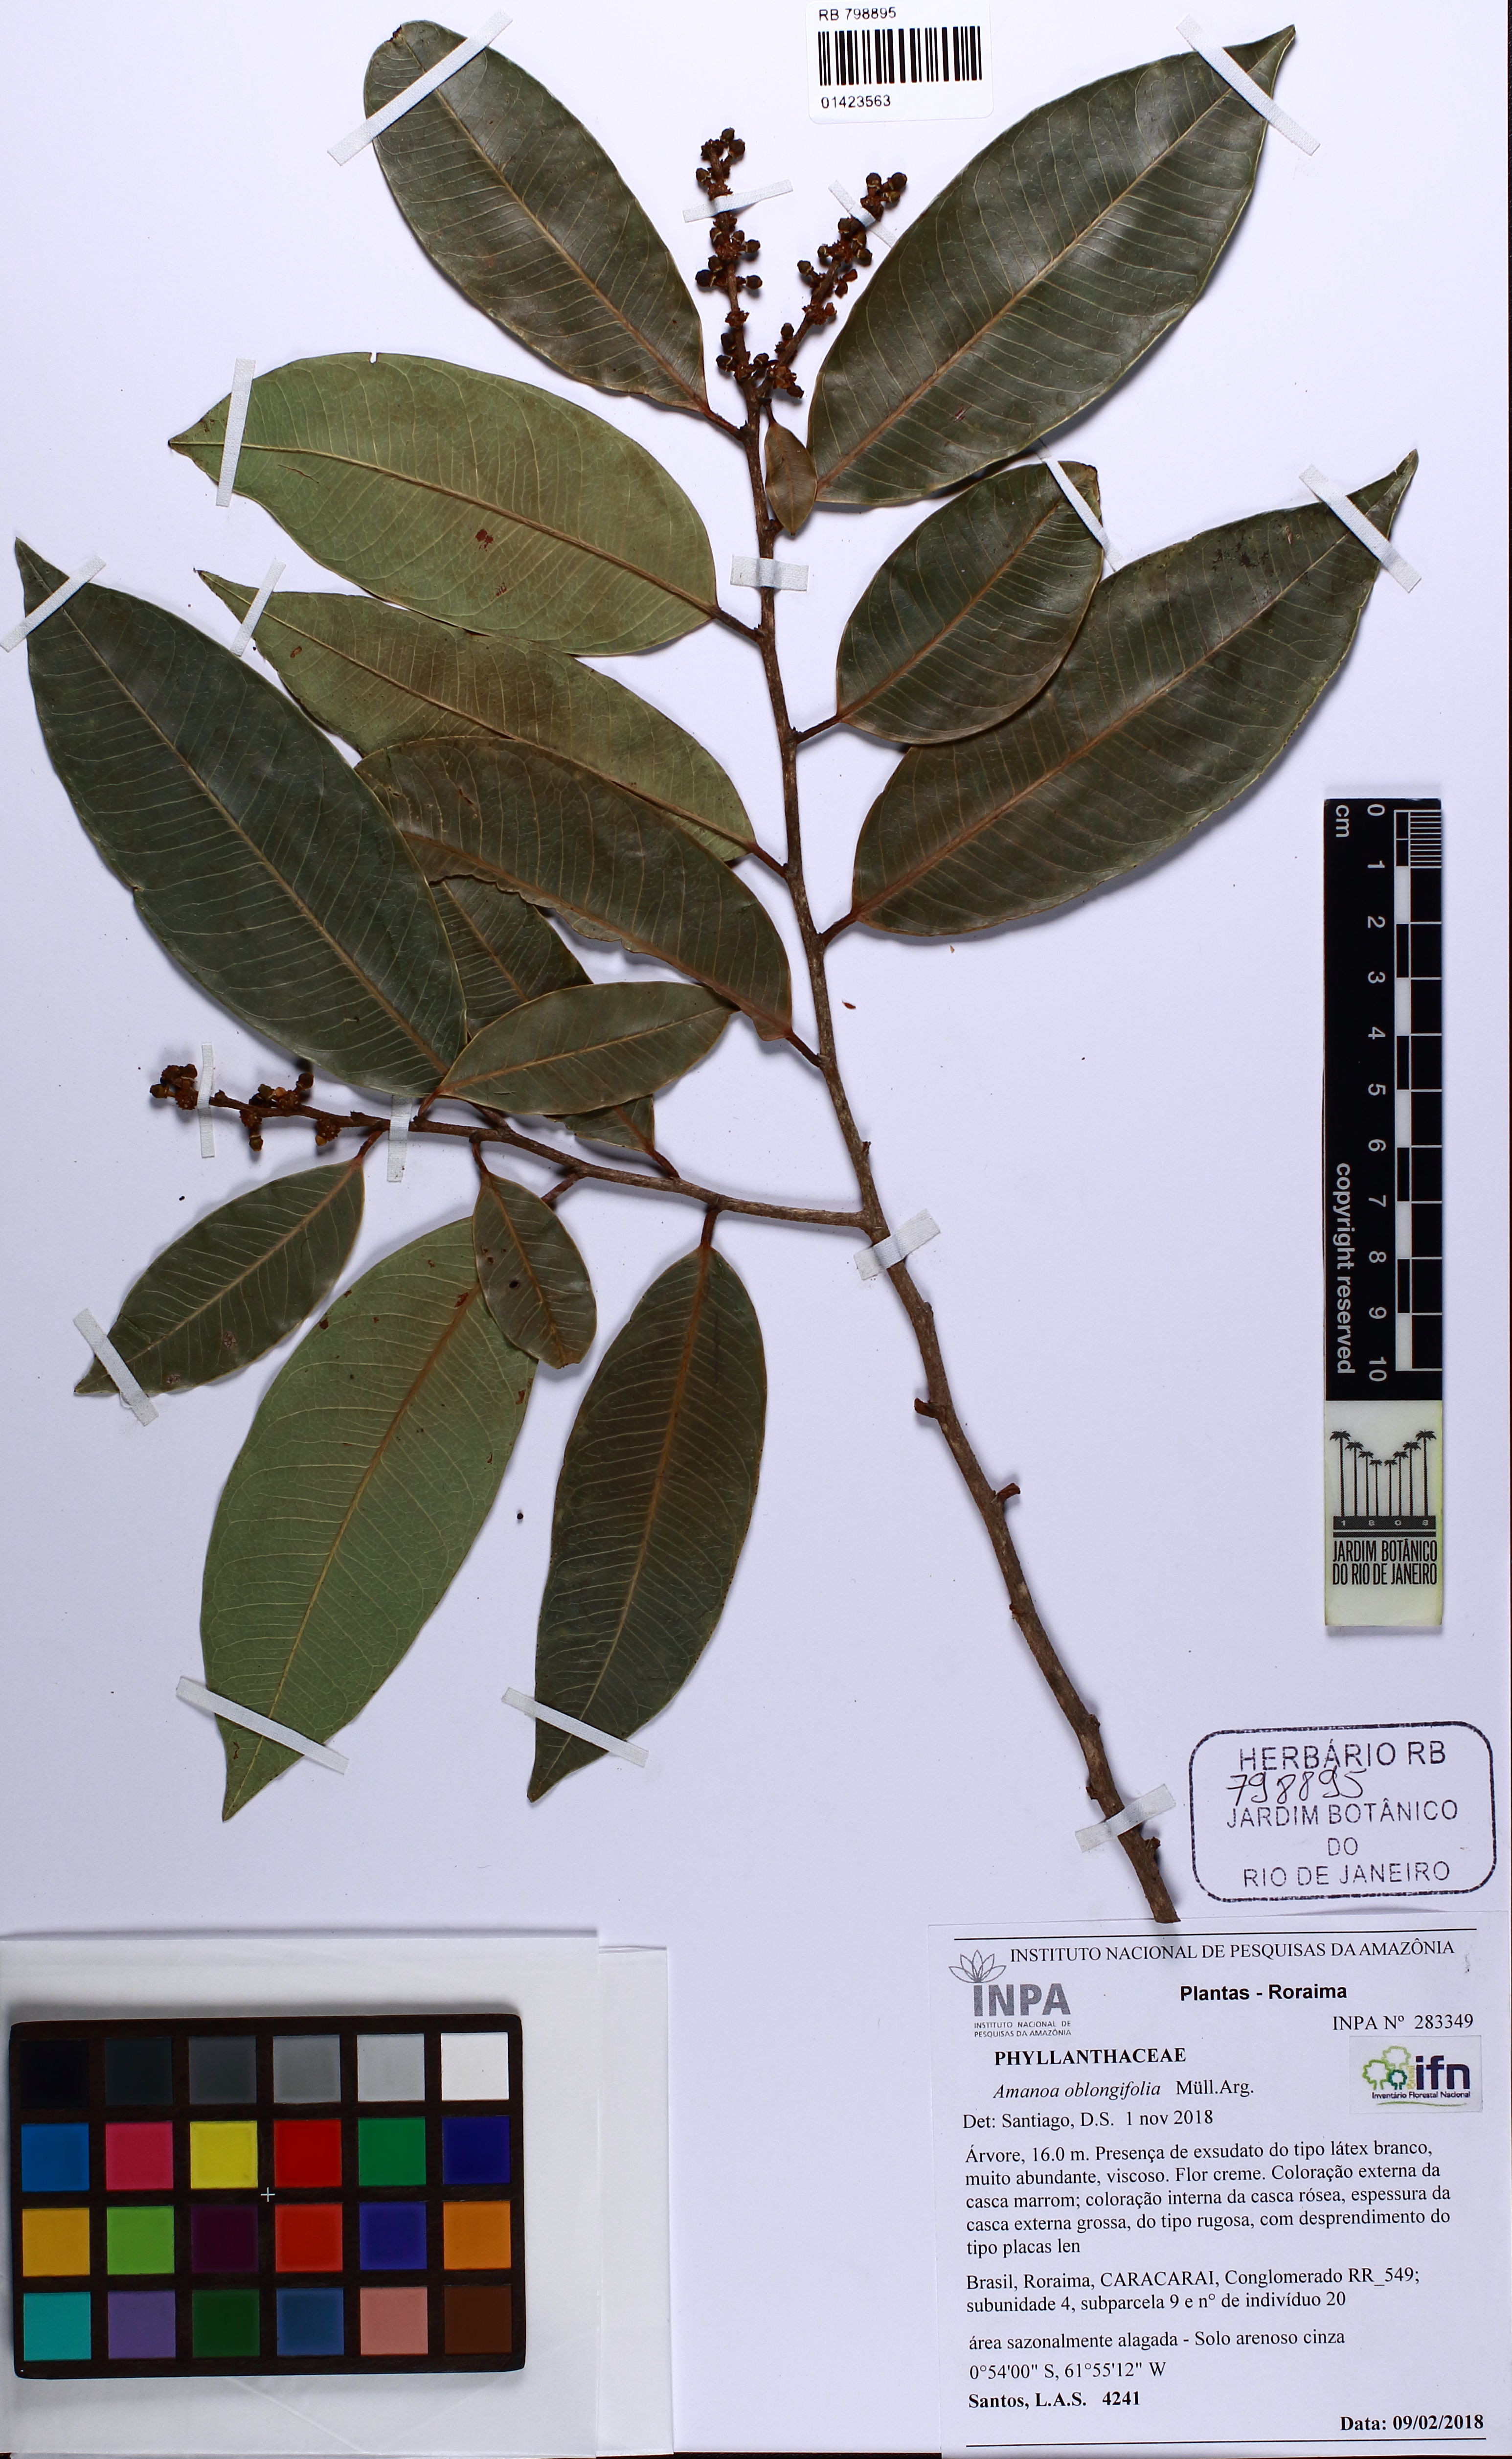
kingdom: Plantae
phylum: Tracheophyta
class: Magnoliopsida
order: Malpighiales
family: Phyllanthaceae
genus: Amanoa
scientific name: Amanoa oblongifolia
